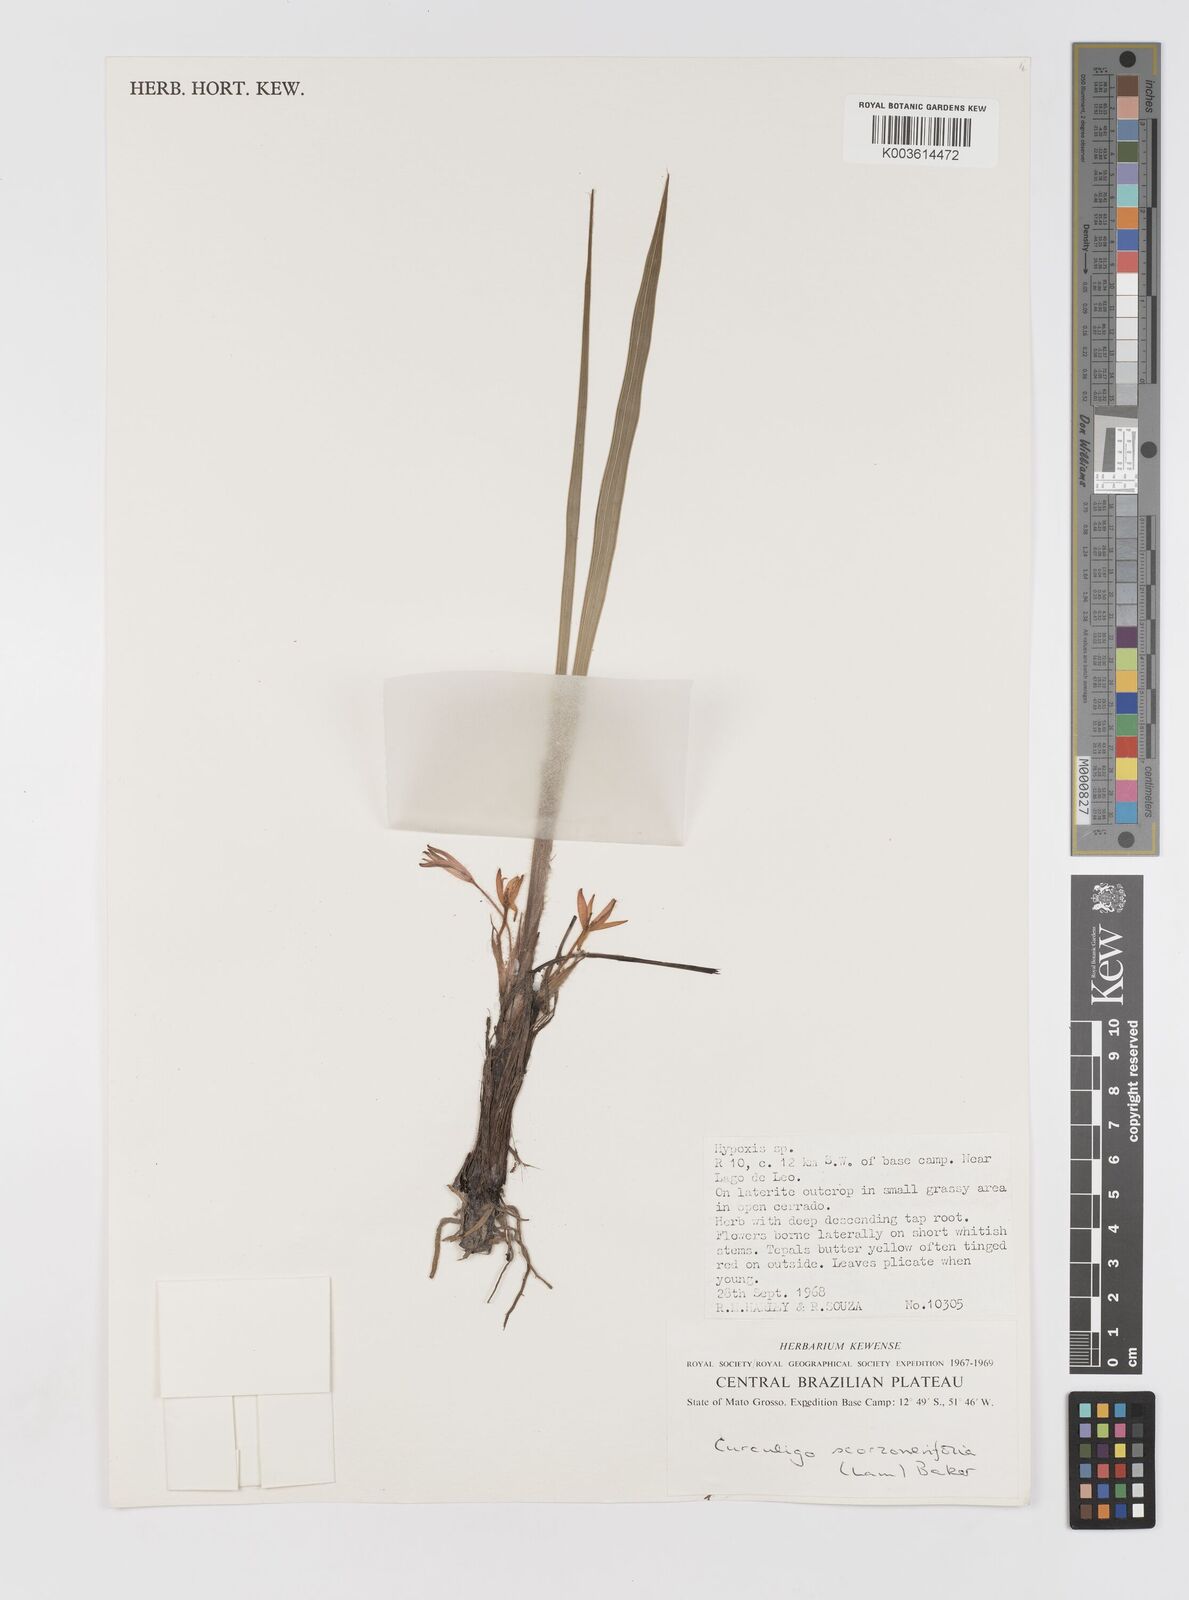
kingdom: Plantae
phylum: Tracheophyta
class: Liliopsida
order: Asparagales
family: Hypoxidaceae
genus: Curculigo
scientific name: Curculigo scorzonerifolia
